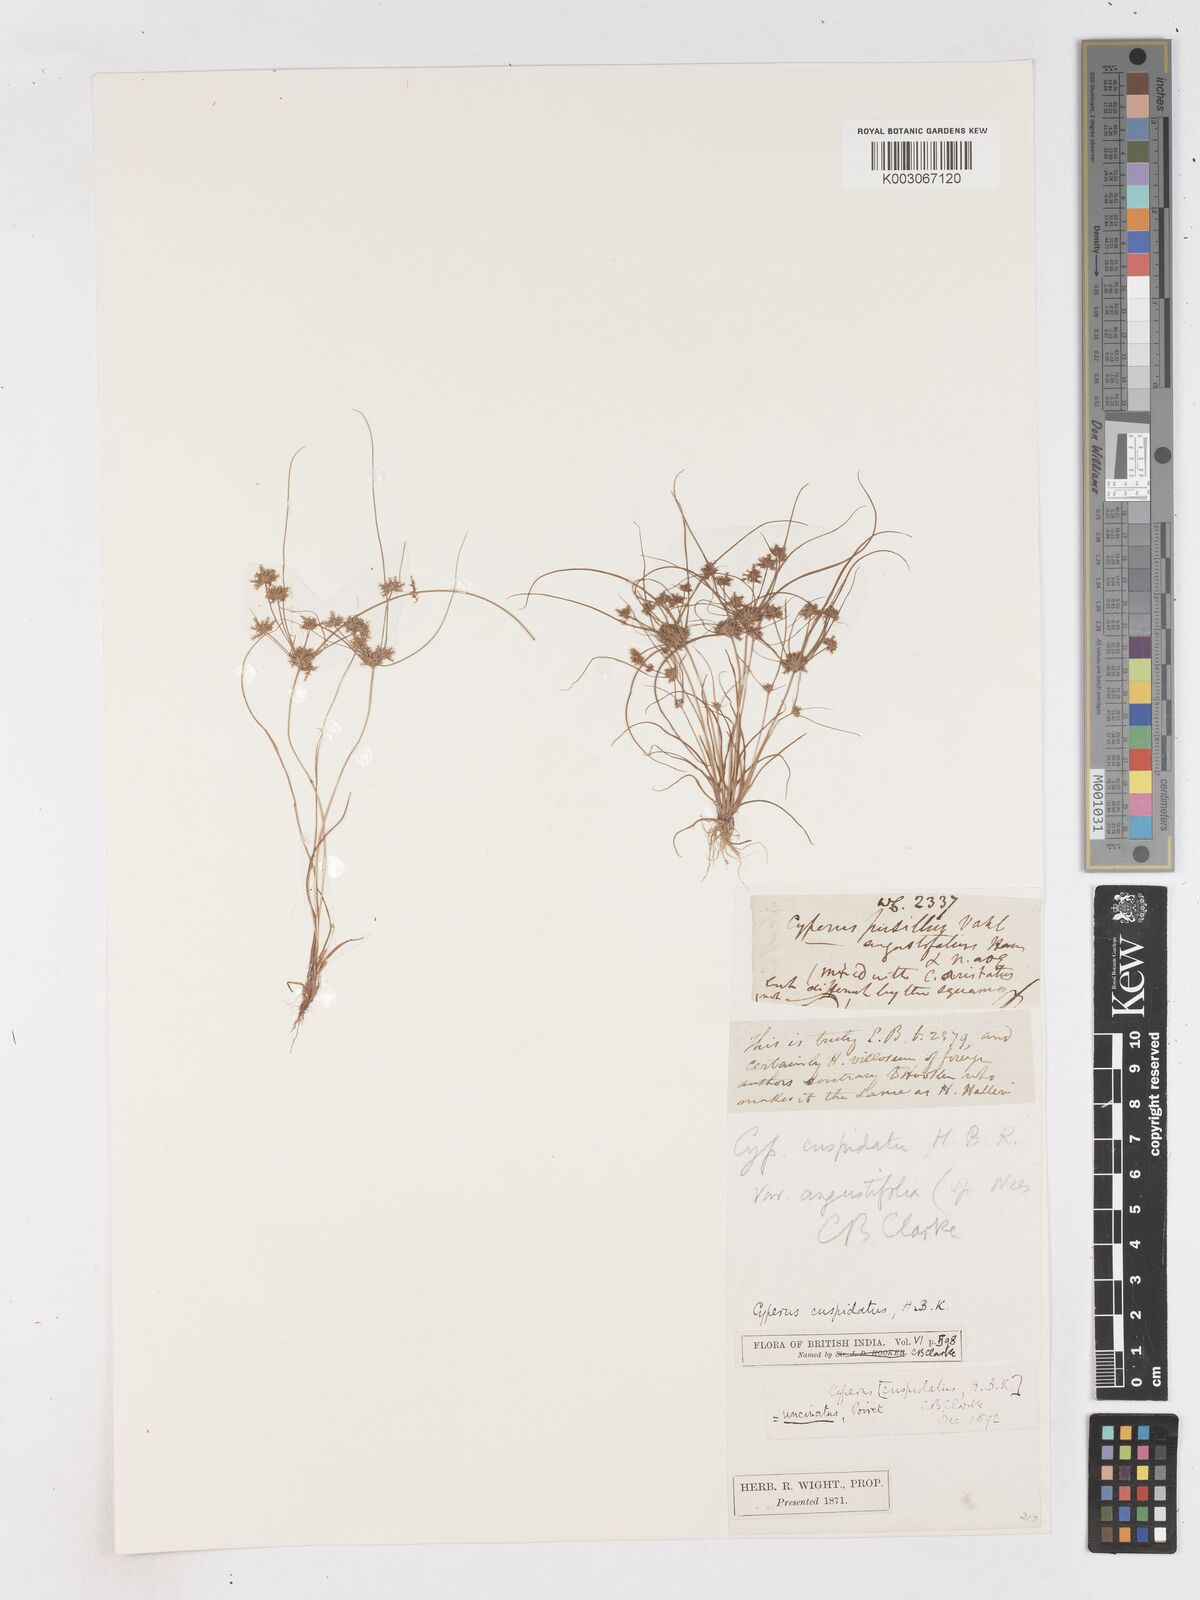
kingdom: Plantae
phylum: Tracheophyta
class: Liliopsida
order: Poales
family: Cyperaceae
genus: Cyperus
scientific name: Cyperus cuspidatus
